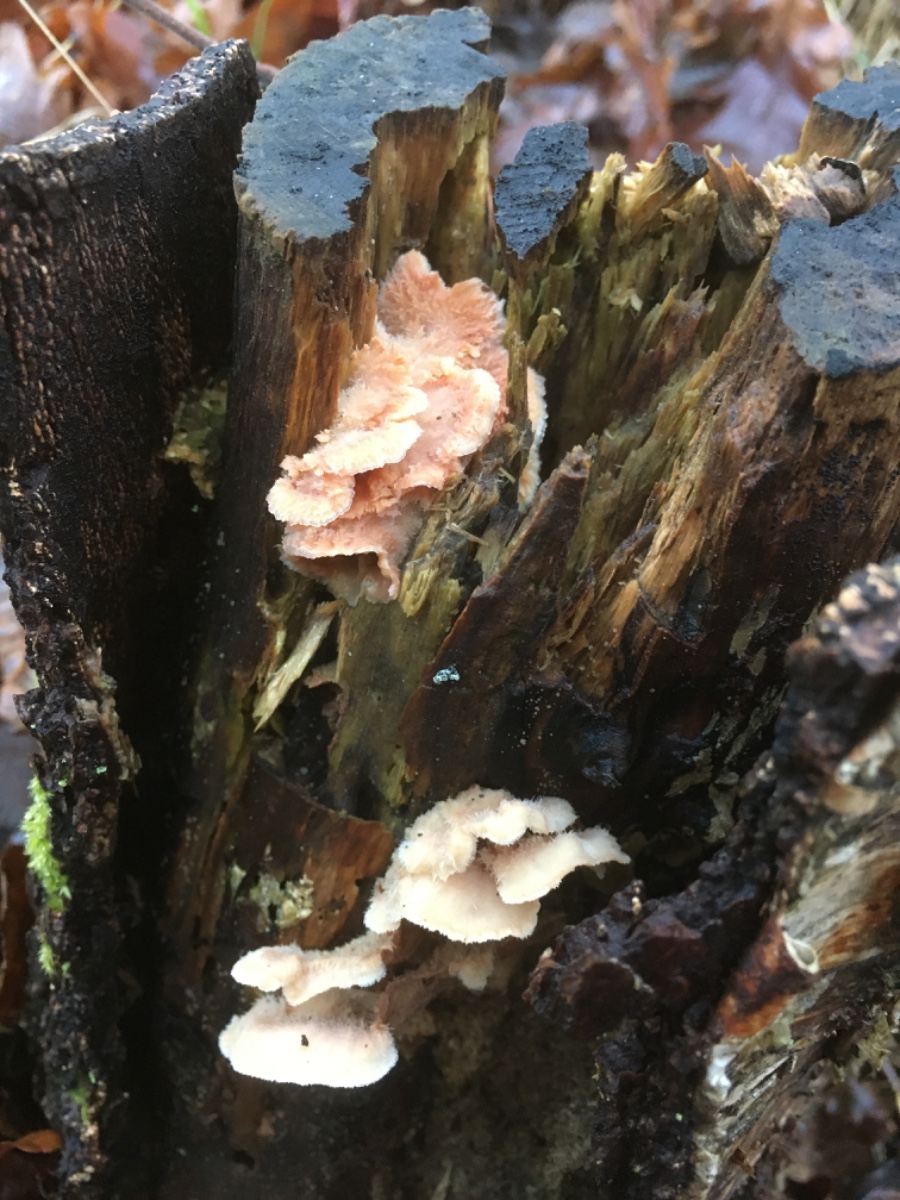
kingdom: Fungi
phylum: Basidiomycota
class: Agaricomycetes
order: Polyporales
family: Meruliaceae
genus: Phlebia
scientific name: Phlebia tremellosa
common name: bævrende åresvamp
